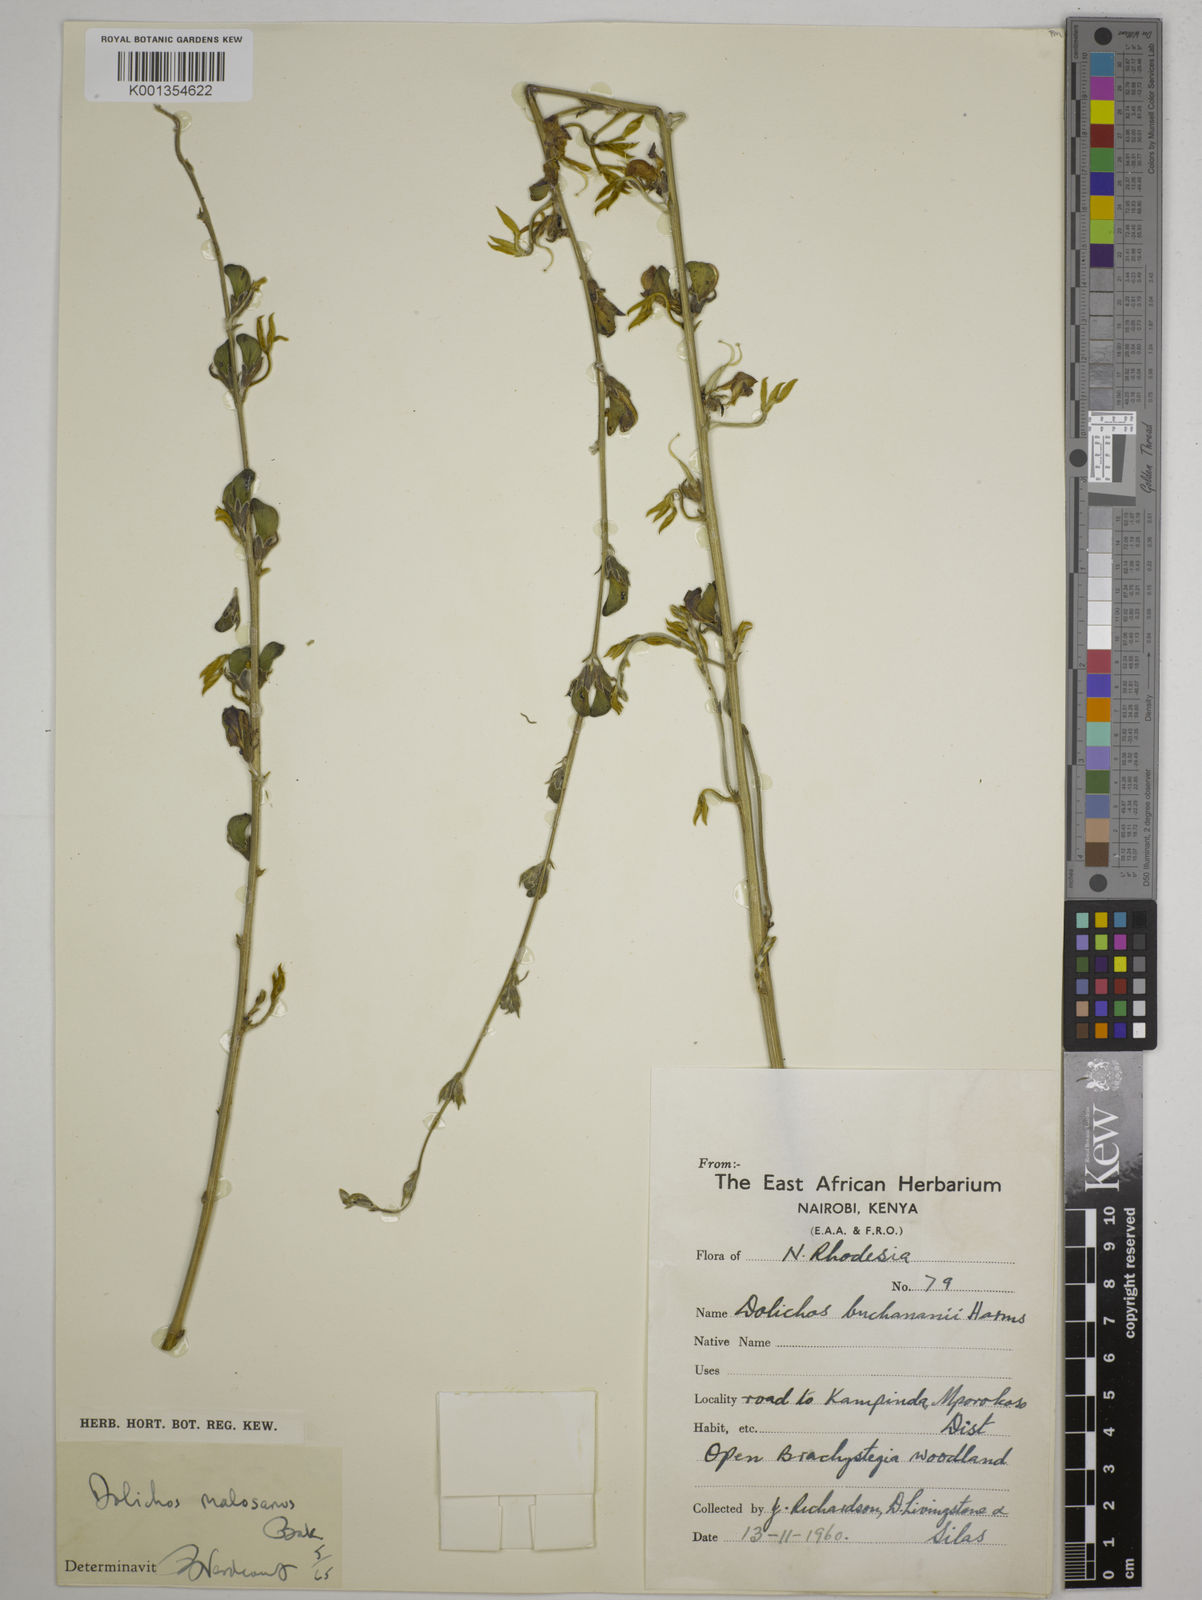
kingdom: Plantae
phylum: Tracheophyta
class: Magnoliopsida
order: Fabales
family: Fabaceae
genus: Dolichos
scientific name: Dolichos kilimandscharicus
